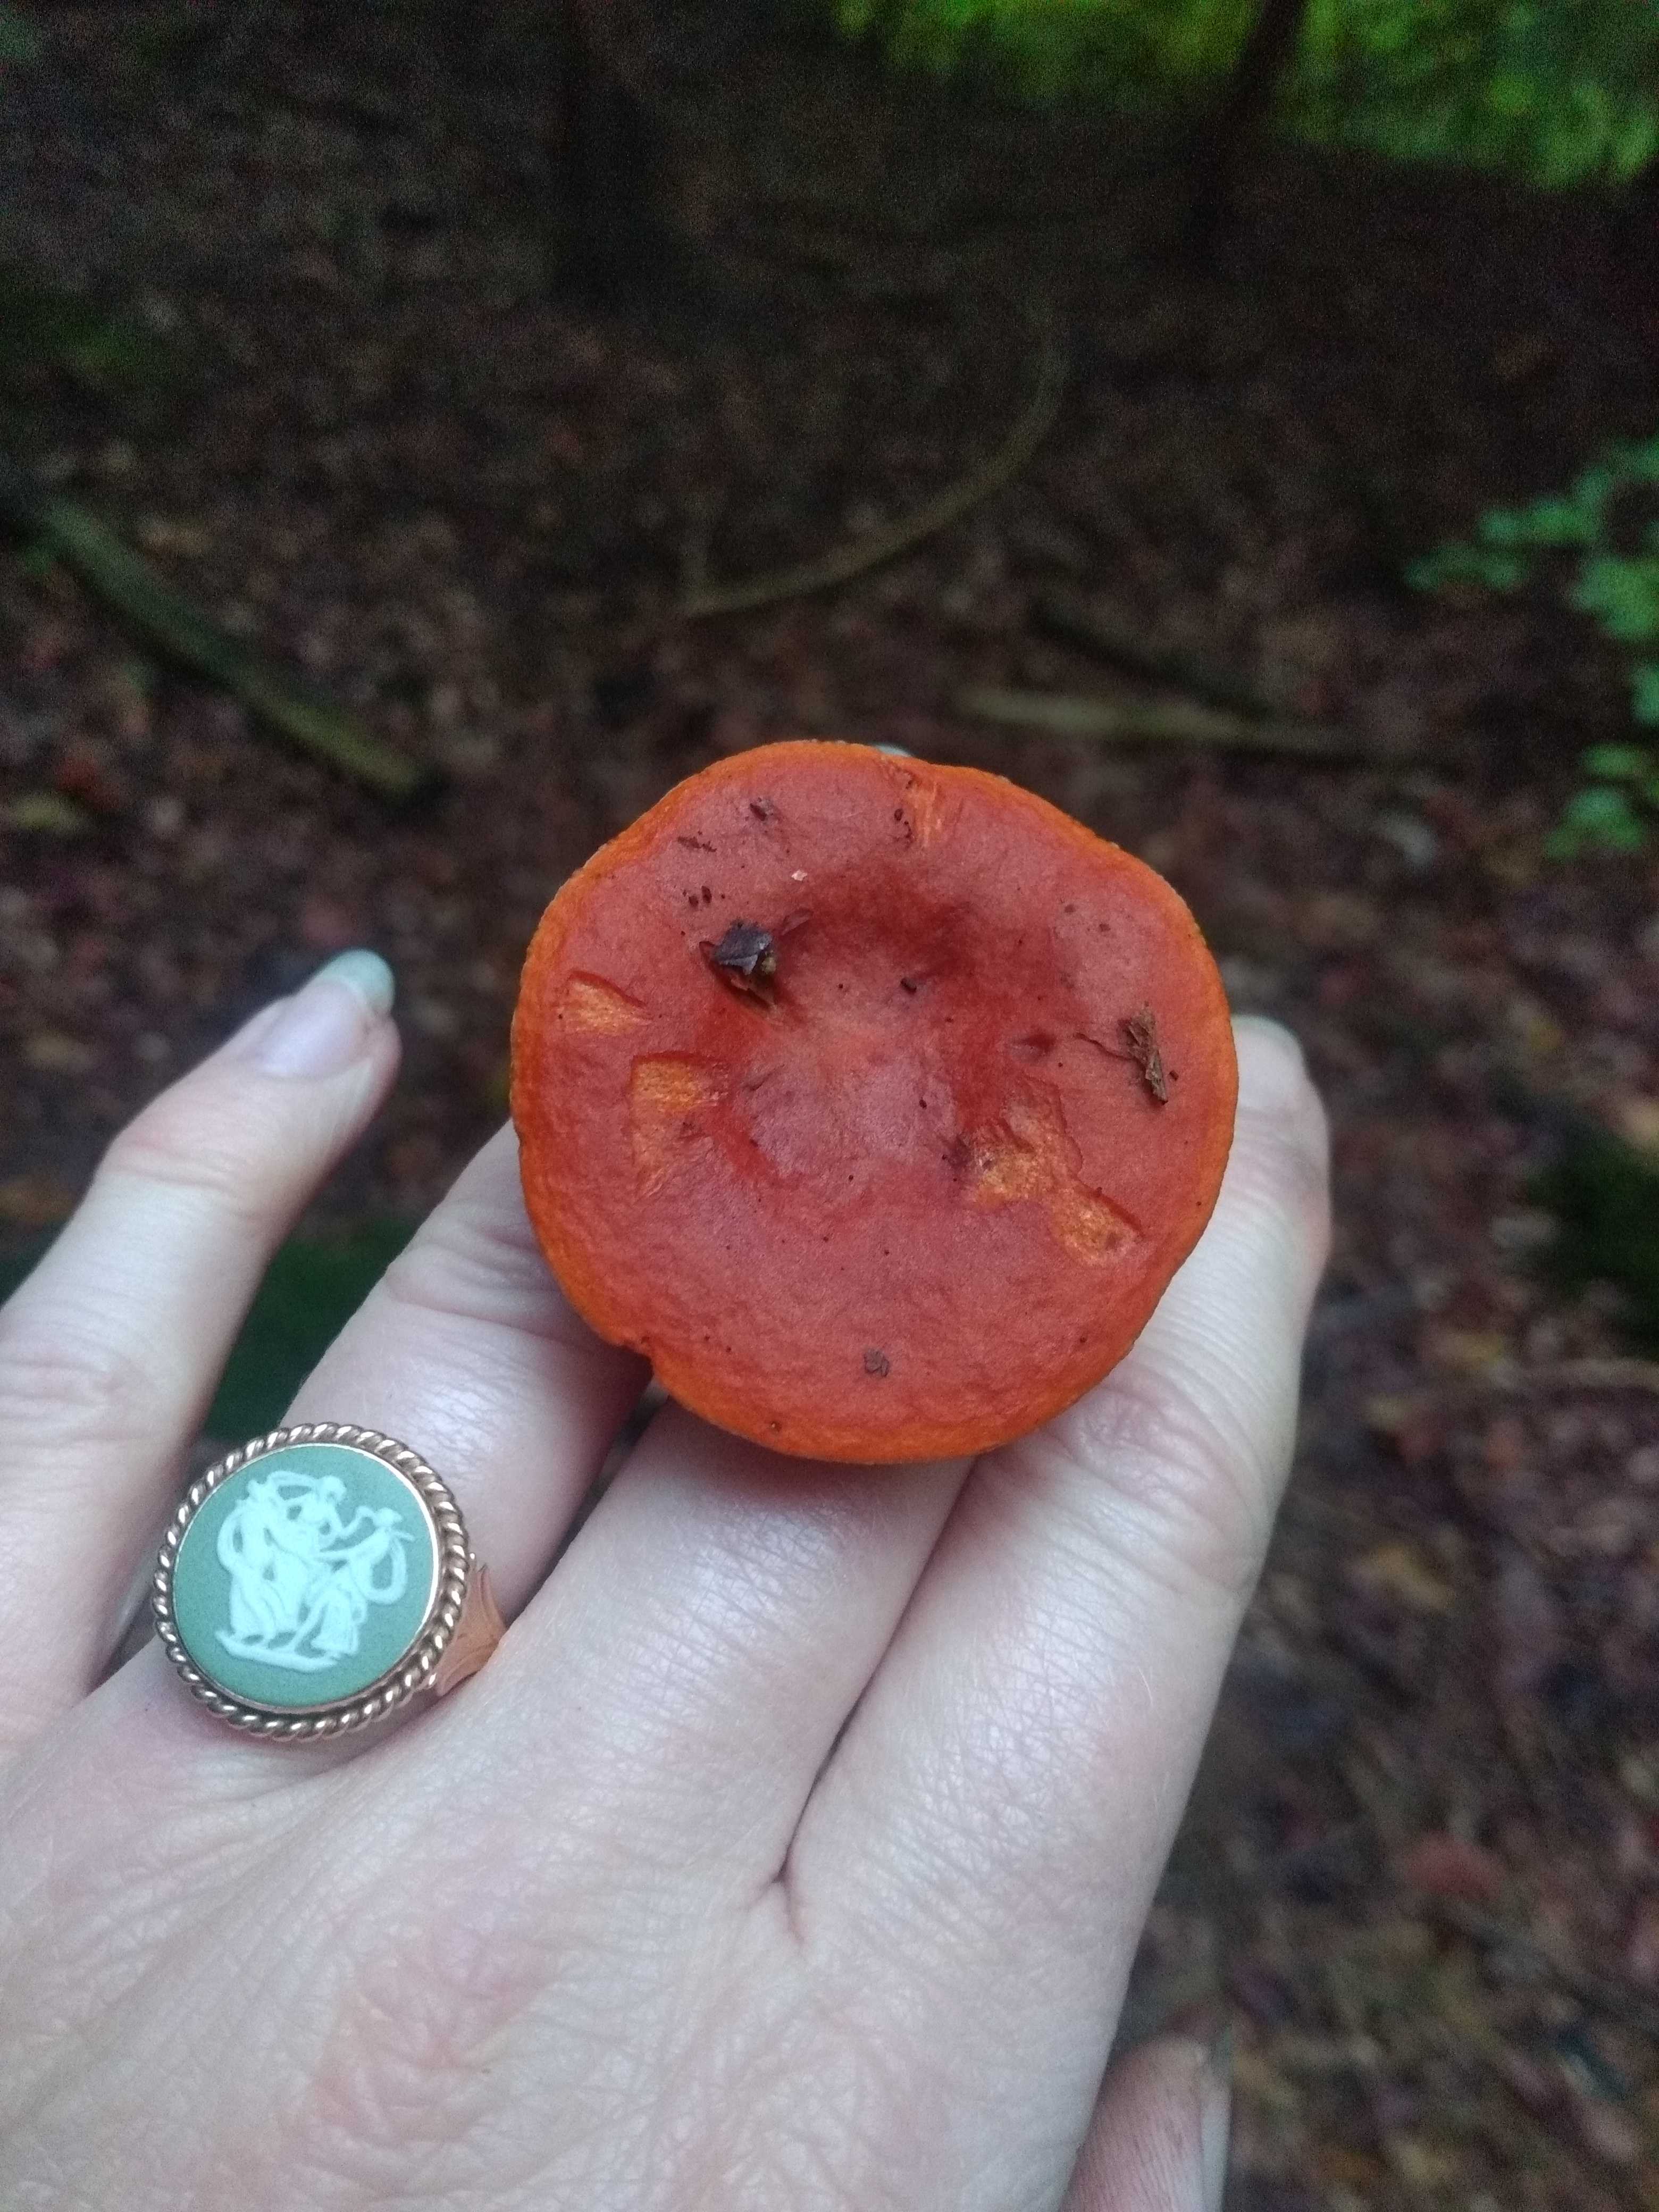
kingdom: Fungi
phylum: Basidiomycota
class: Agaricomycetes
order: Russulales
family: Russulaceae
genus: Lactarius
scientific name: Lactarius
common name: mælkehat
